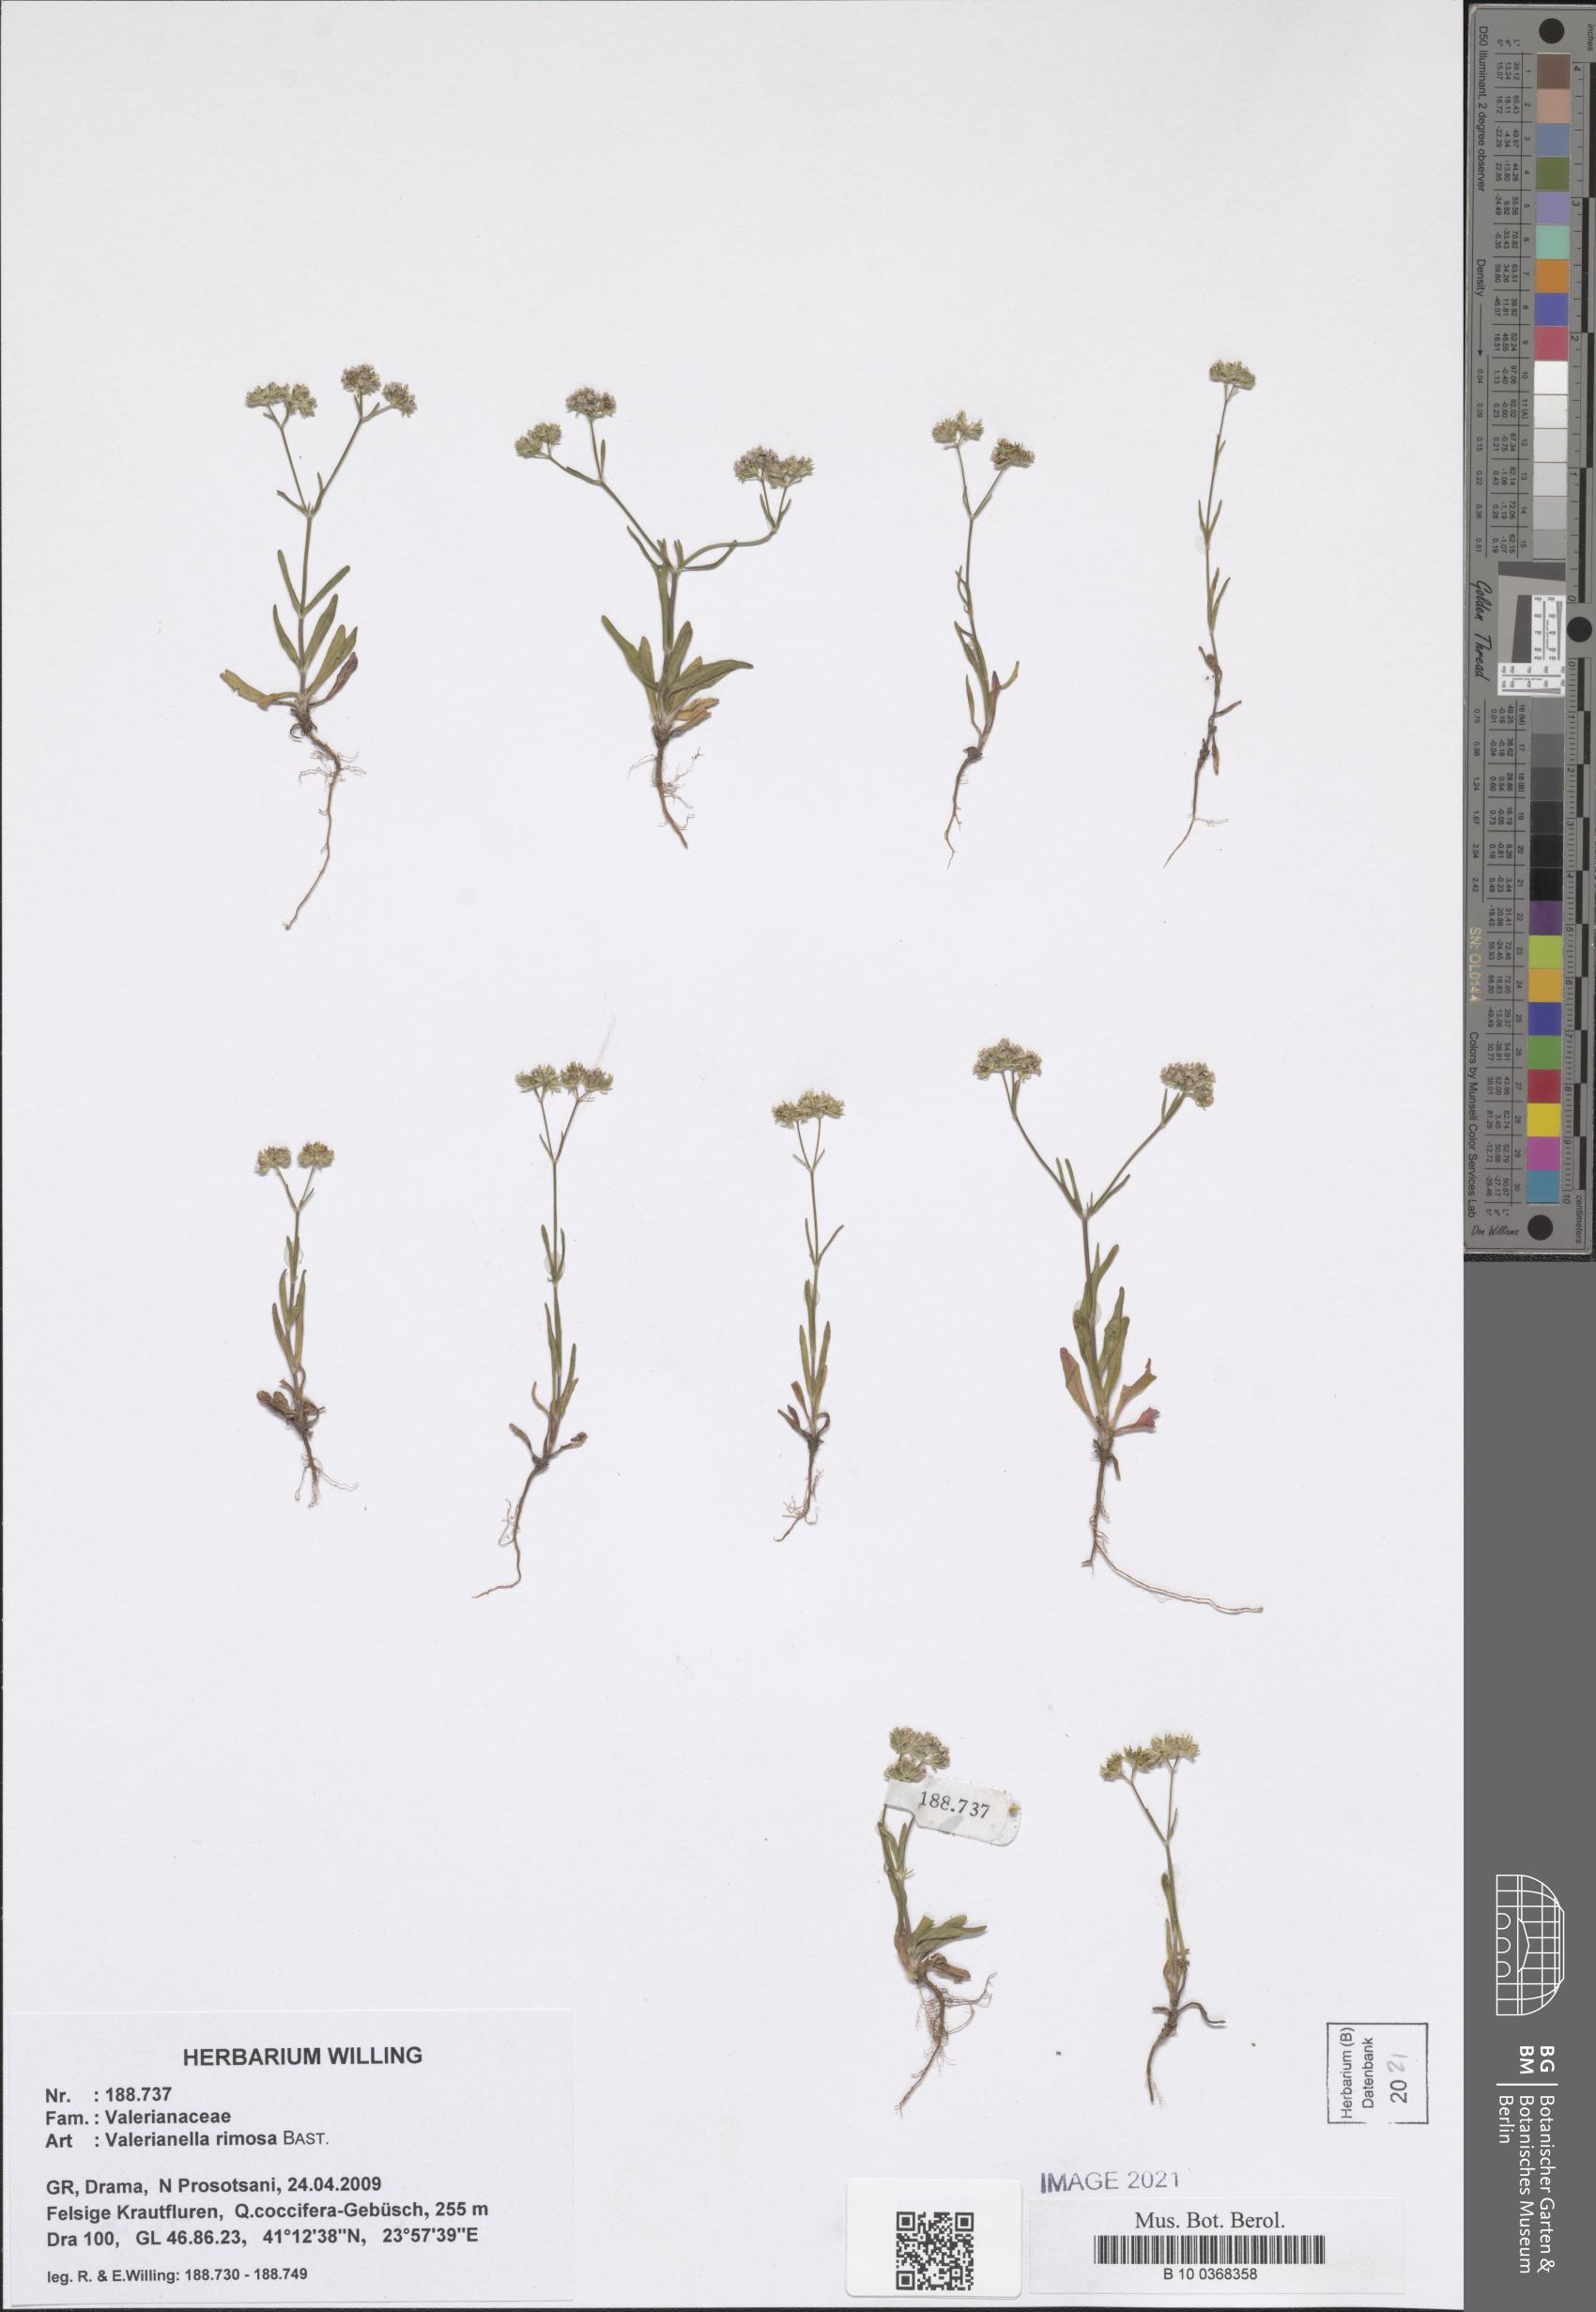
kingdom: Plantae
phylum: Tracheophyta
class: Magnoliopsida
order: Dipsacales
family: Caprifoliaceae
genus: Valerianella
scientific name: Valerianella rimosa
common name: Broad-fruited cornsalad
